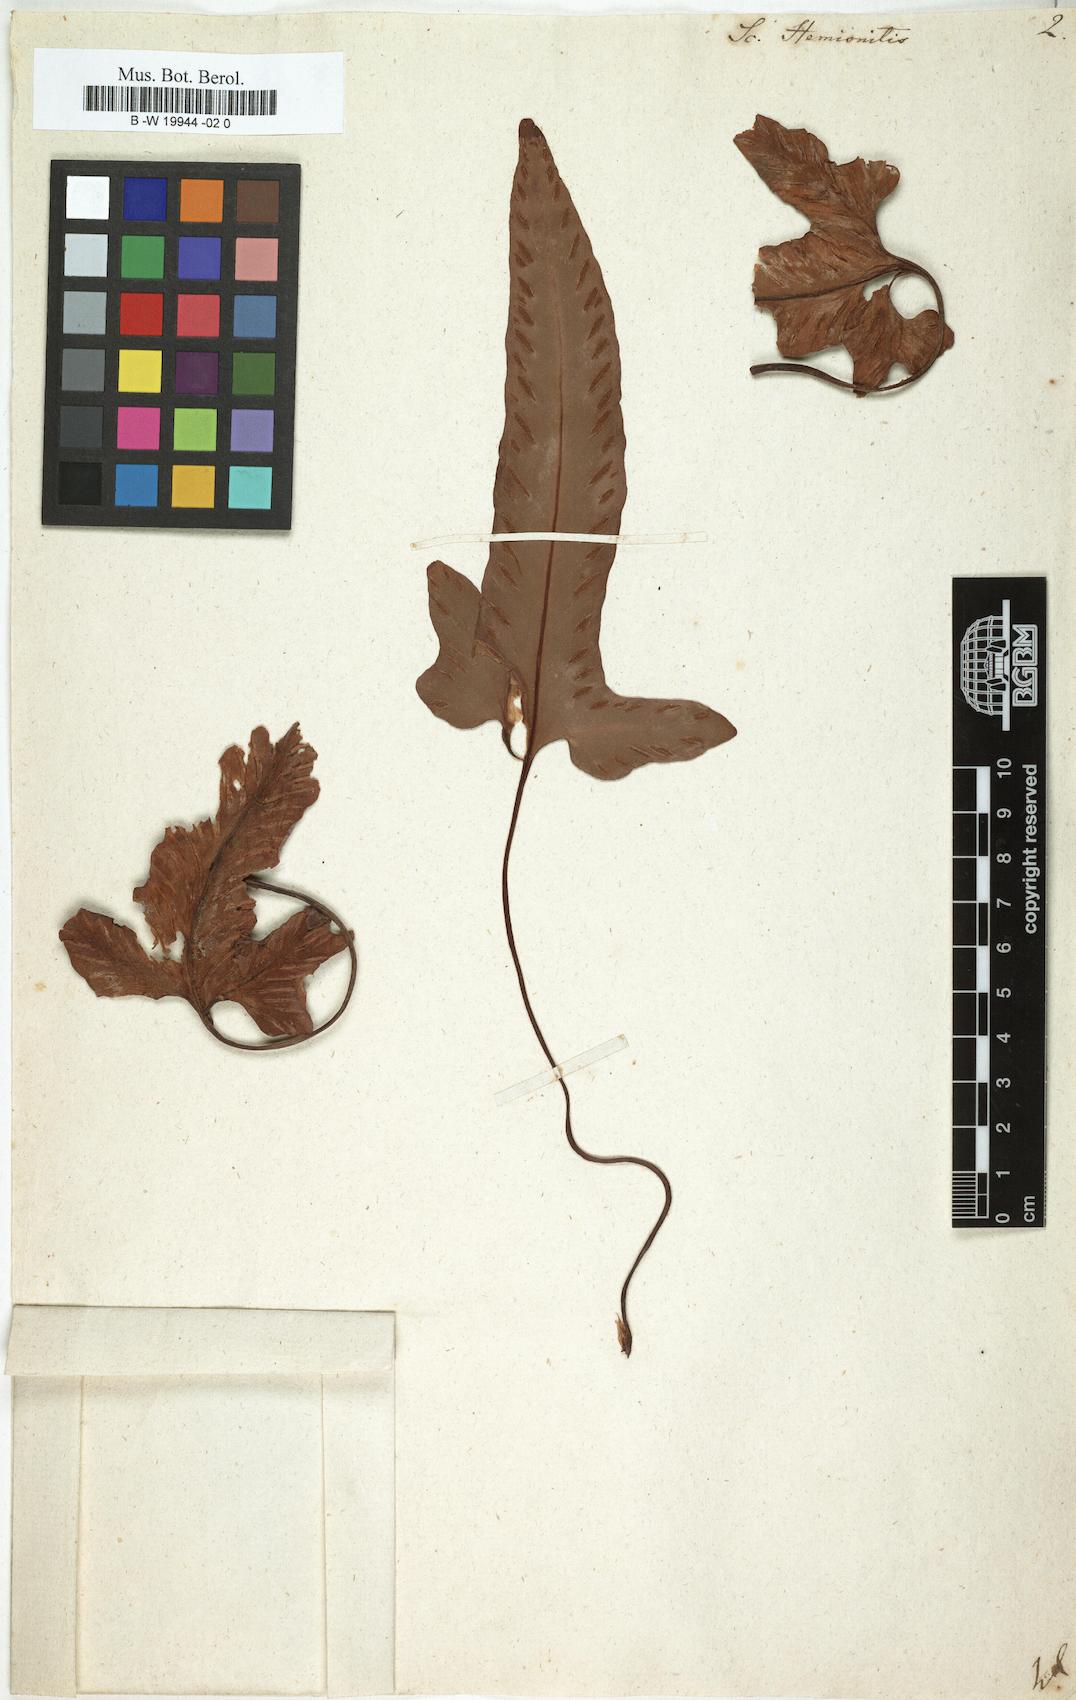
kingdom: Plantae
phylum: Tracheophyta
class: Polypodiopsida
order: Polypodiales
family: Aspleniaceae
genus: Asplenium
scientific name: Asplenium sagittatum
